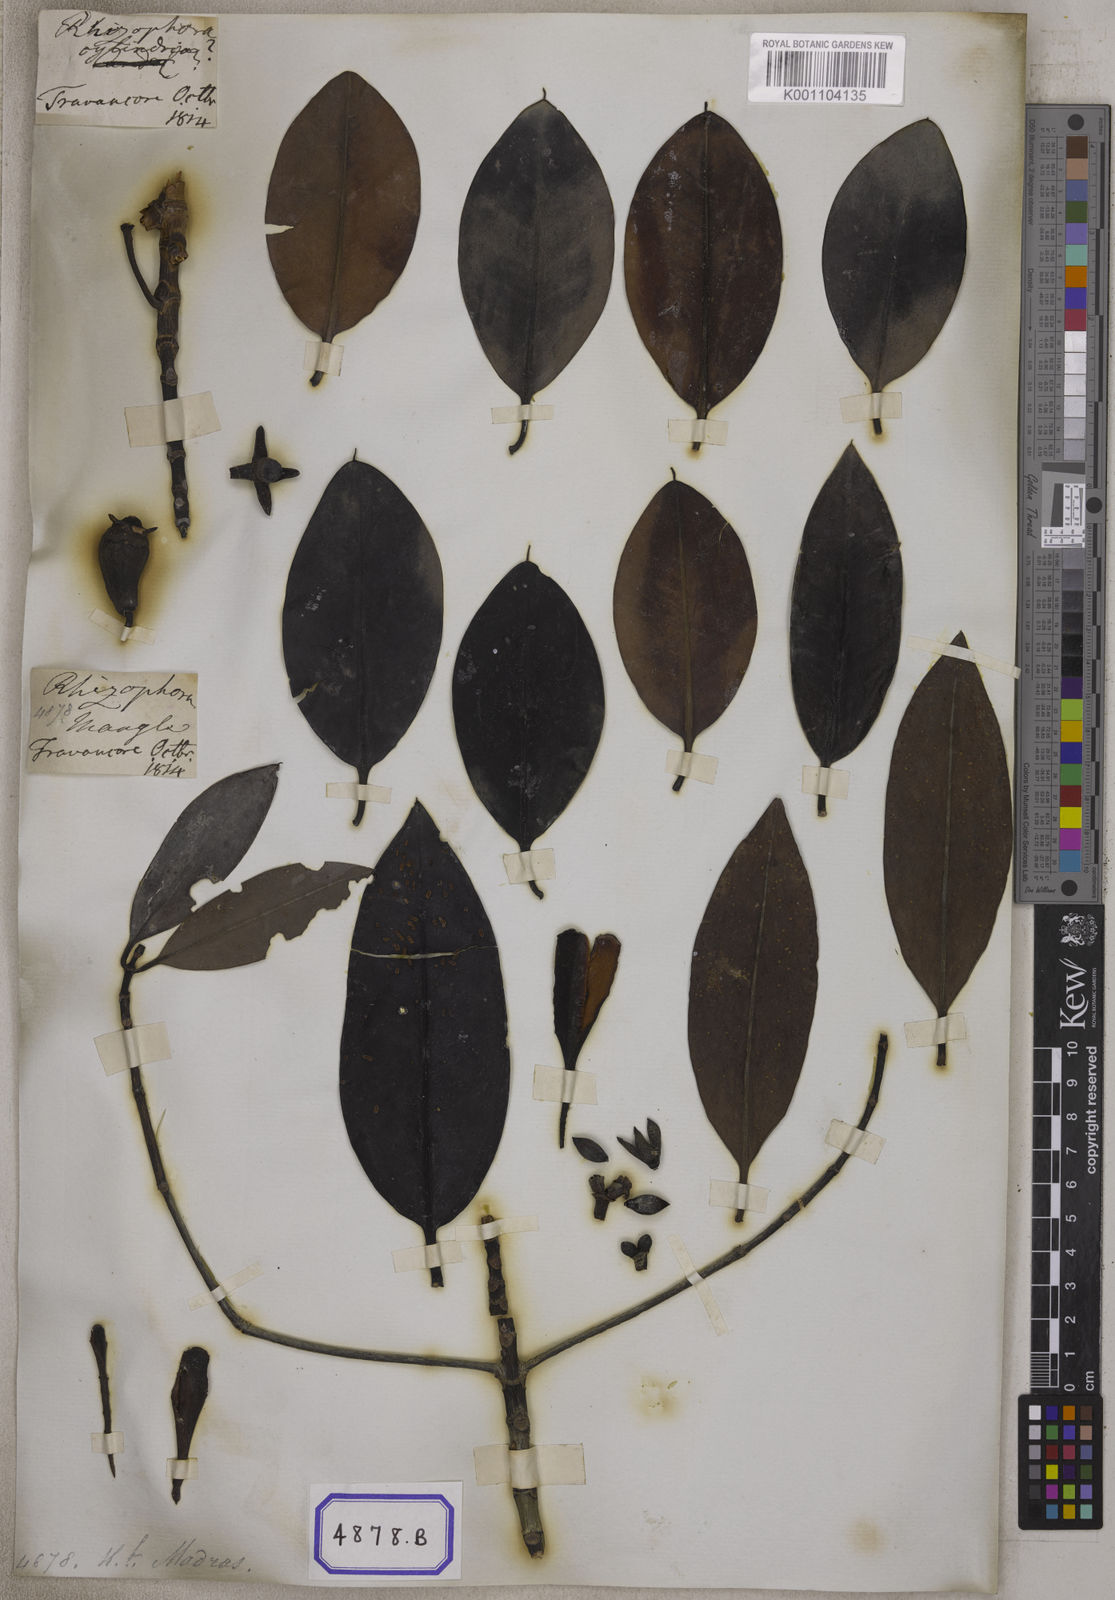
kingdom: Plantae
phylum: Tracheophyta
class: Magnoliopsida
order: Malpighiales
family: Rhizophoraceae
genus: Rhizophora
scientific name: Rhizophora
